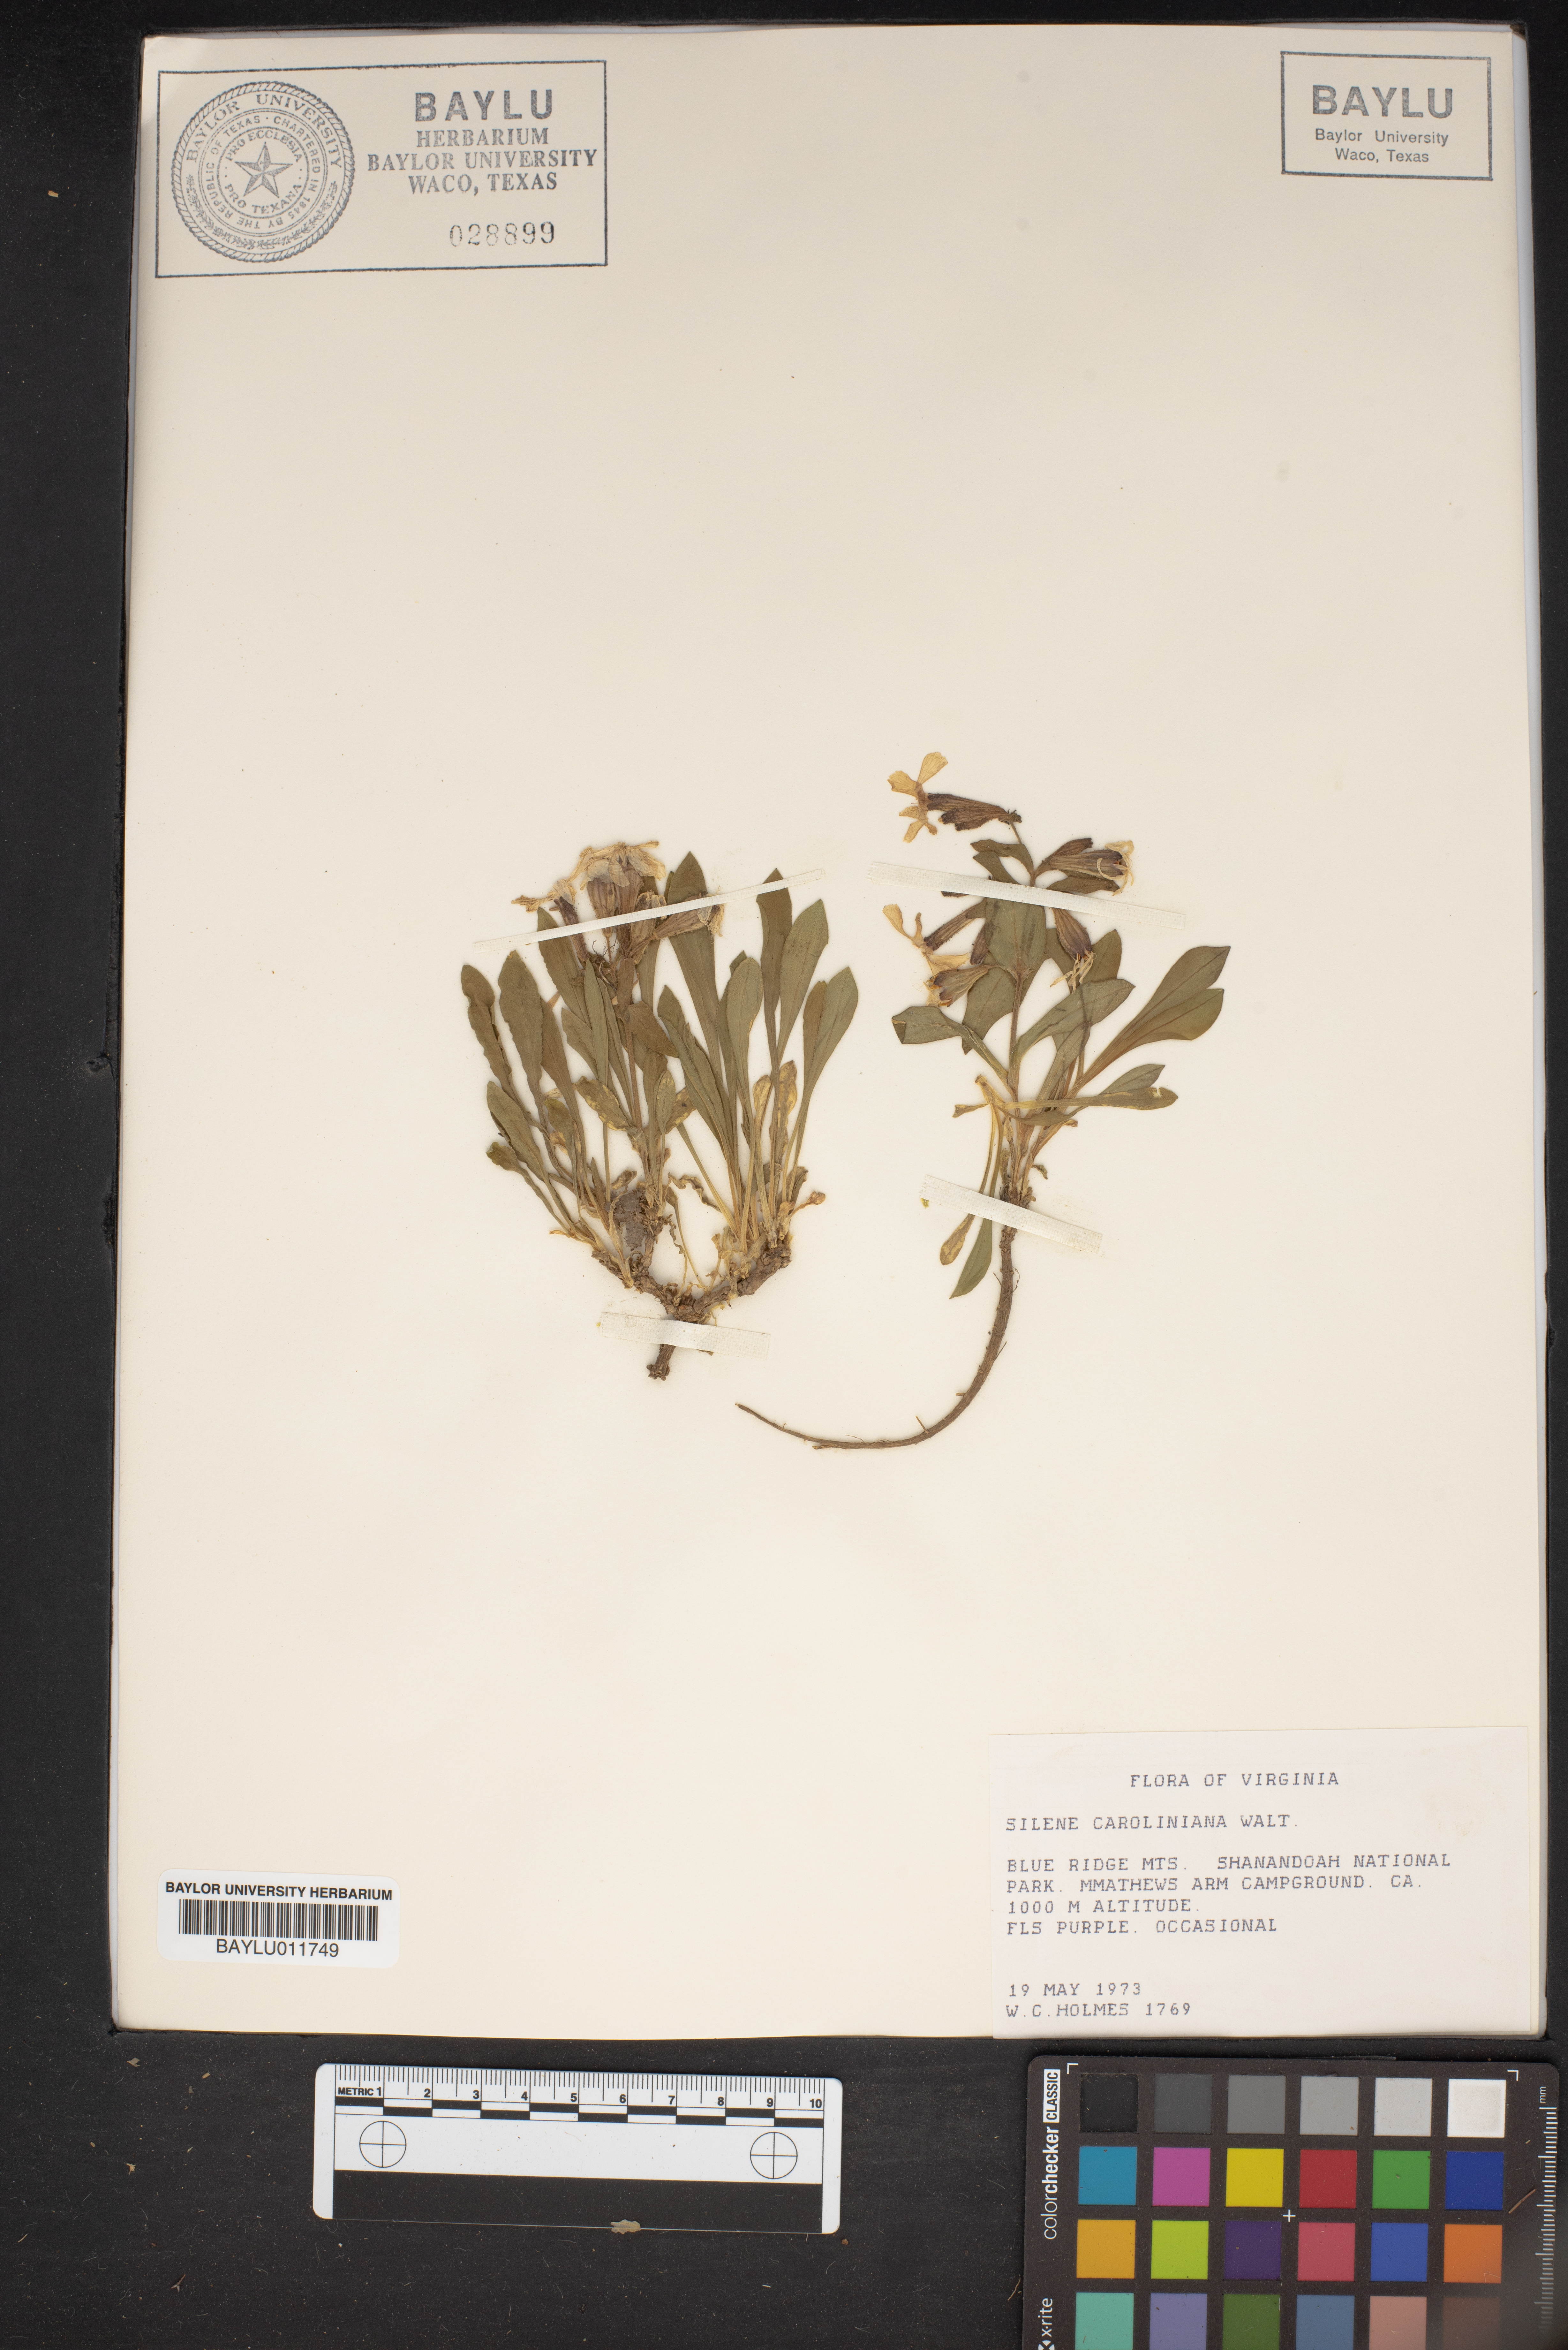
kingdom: Plantae
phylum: Tracheophyta
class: Magnoliopsida
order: Caryophyllales
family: Caryophyllaceae
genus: Silene
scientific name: Silene caroliniana
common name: Sticky catchfly
